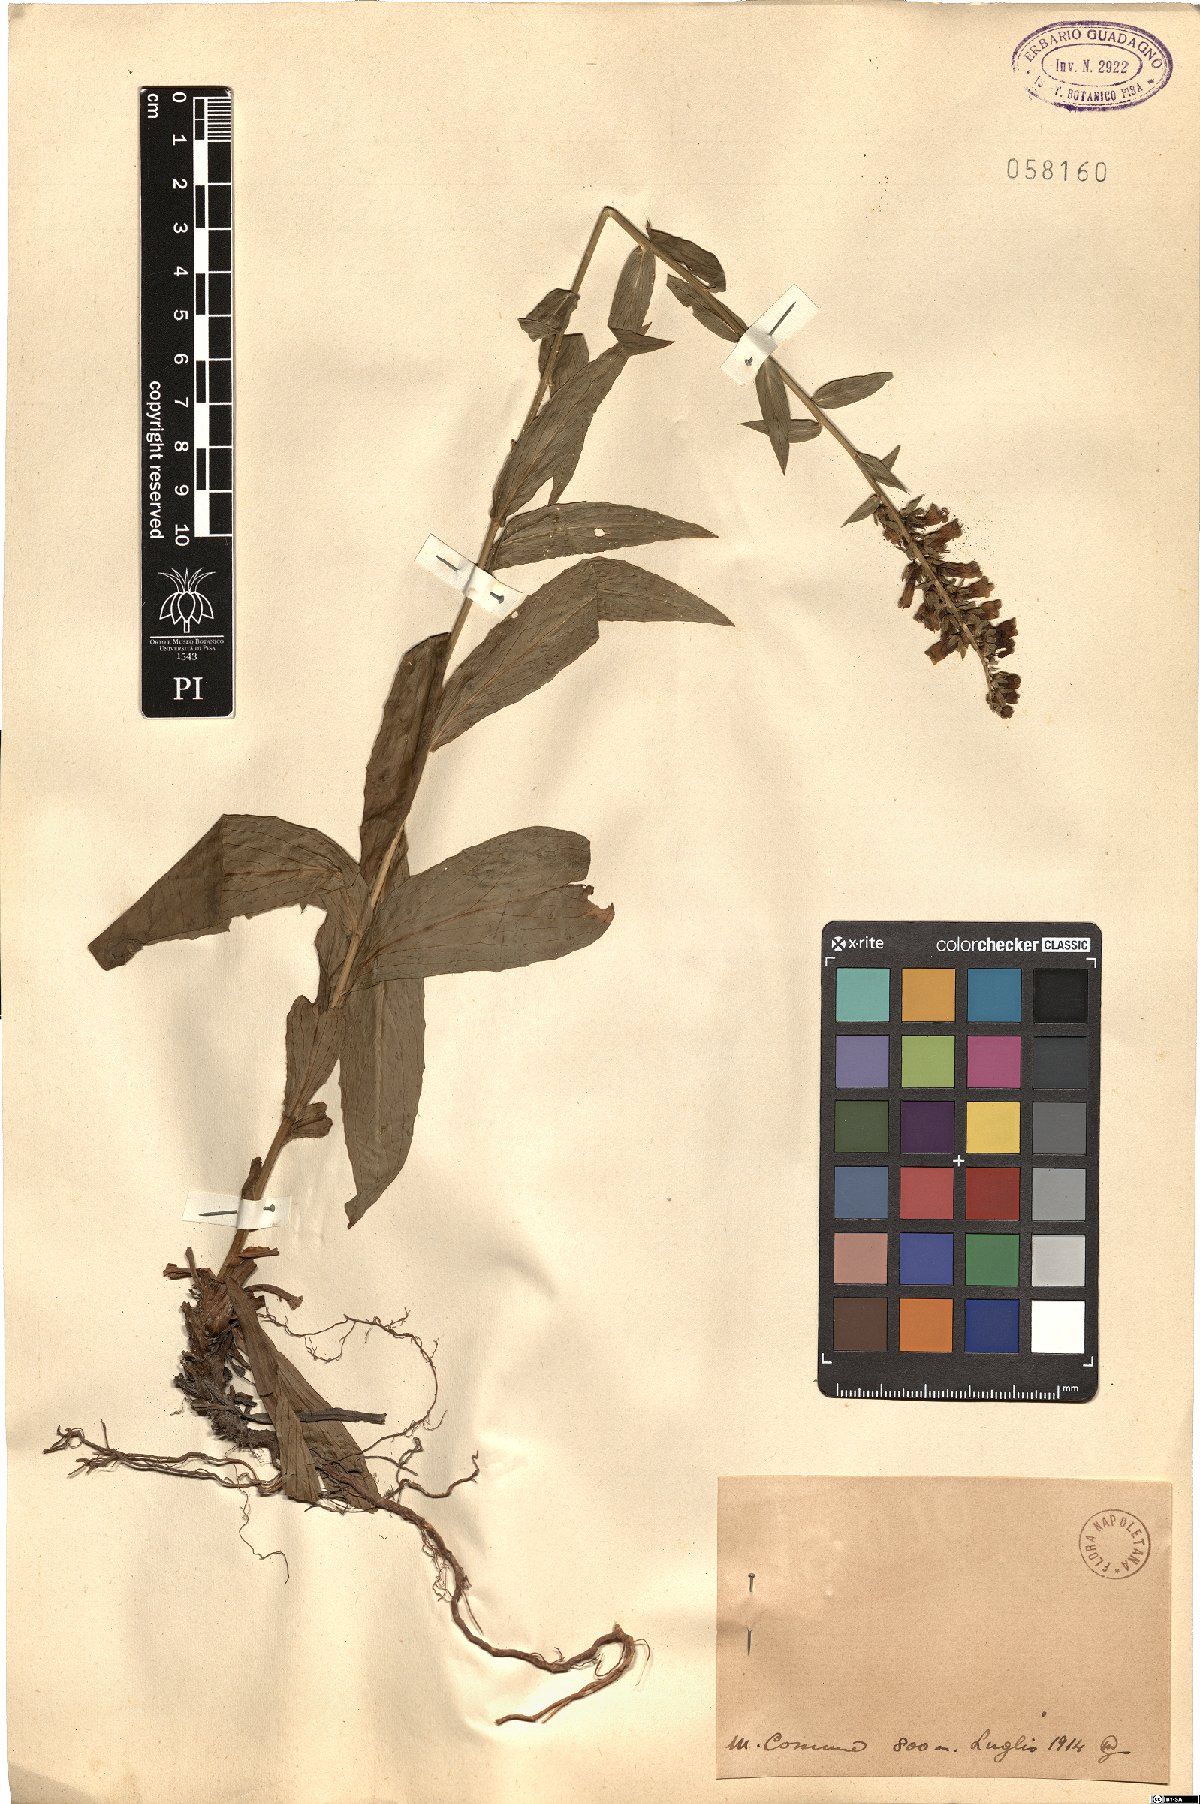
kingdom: Plantae
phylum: Tracheophyta
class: Magnoliopsida
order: Lamiales
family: Plantaginaceae
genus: Digitalis
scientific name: Digitalis
